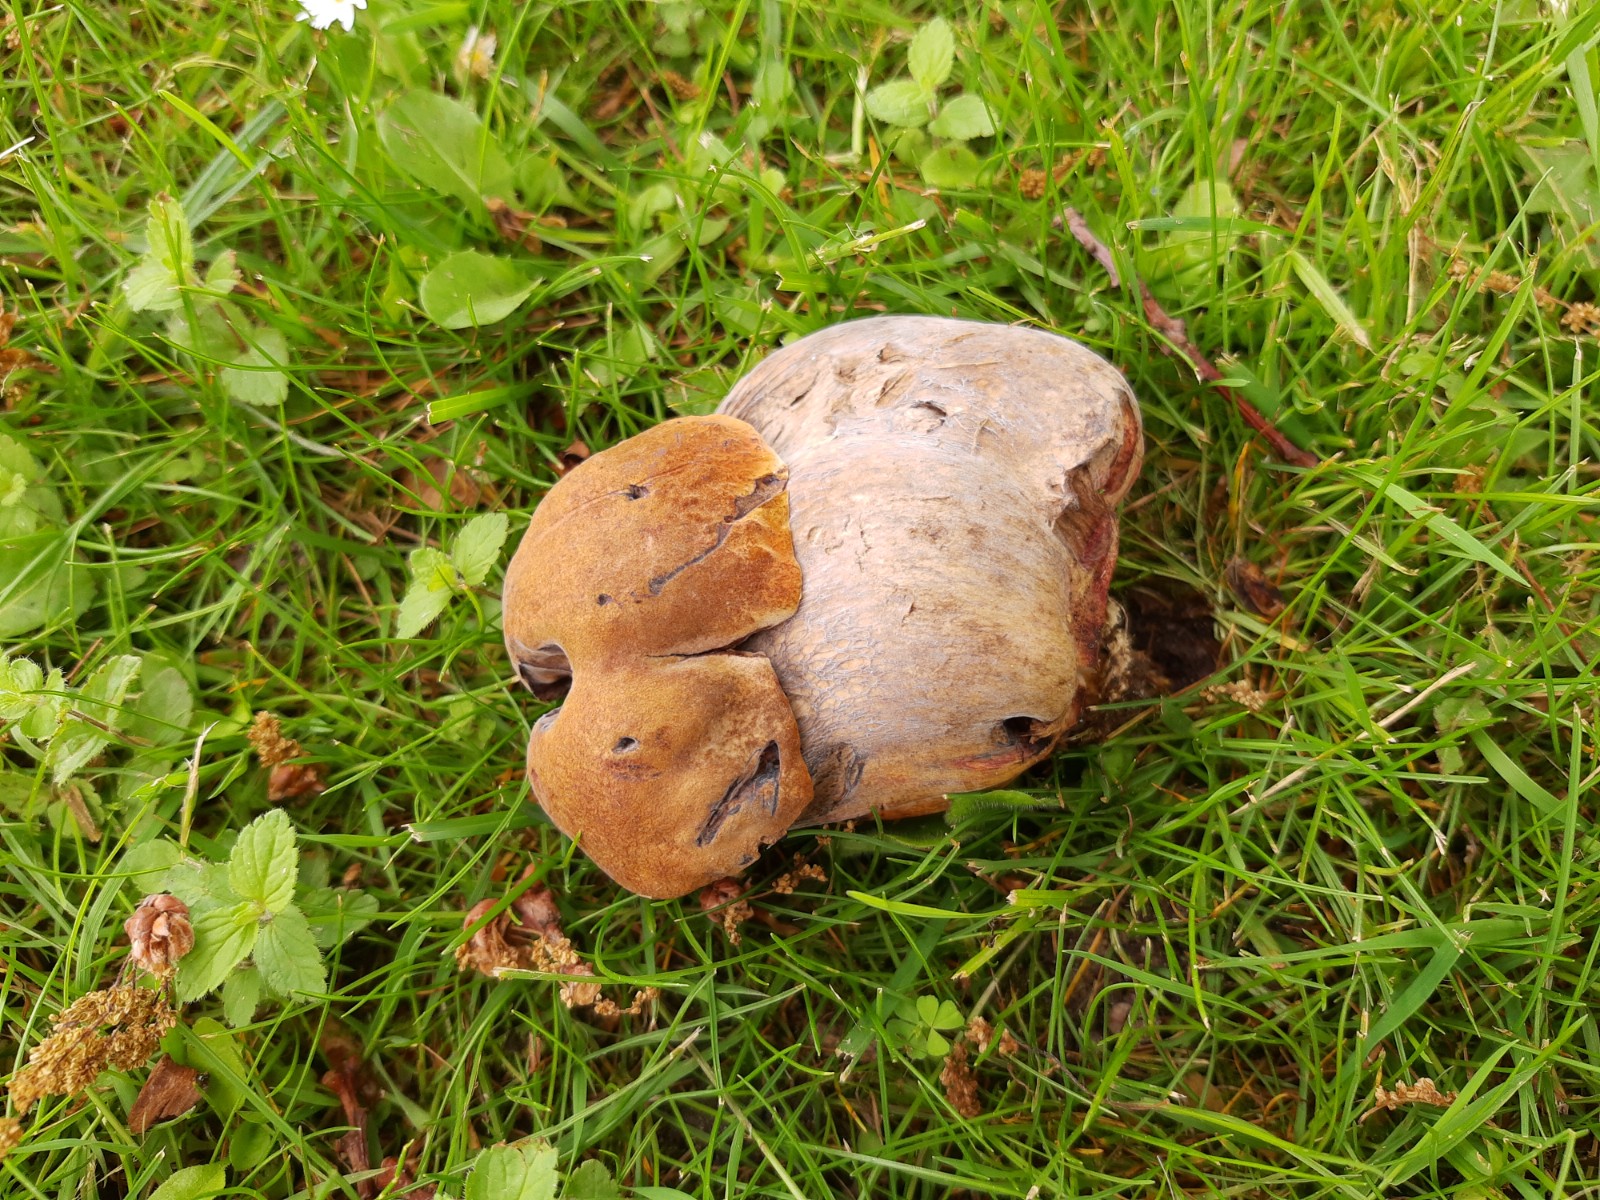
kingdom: Fungi
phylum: Basidiomycota
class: Agaricomycetes
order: Boletales
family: Boletaceae
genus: Suillellus
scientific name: Suillellus luridus
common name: netstokket indigorørhat
